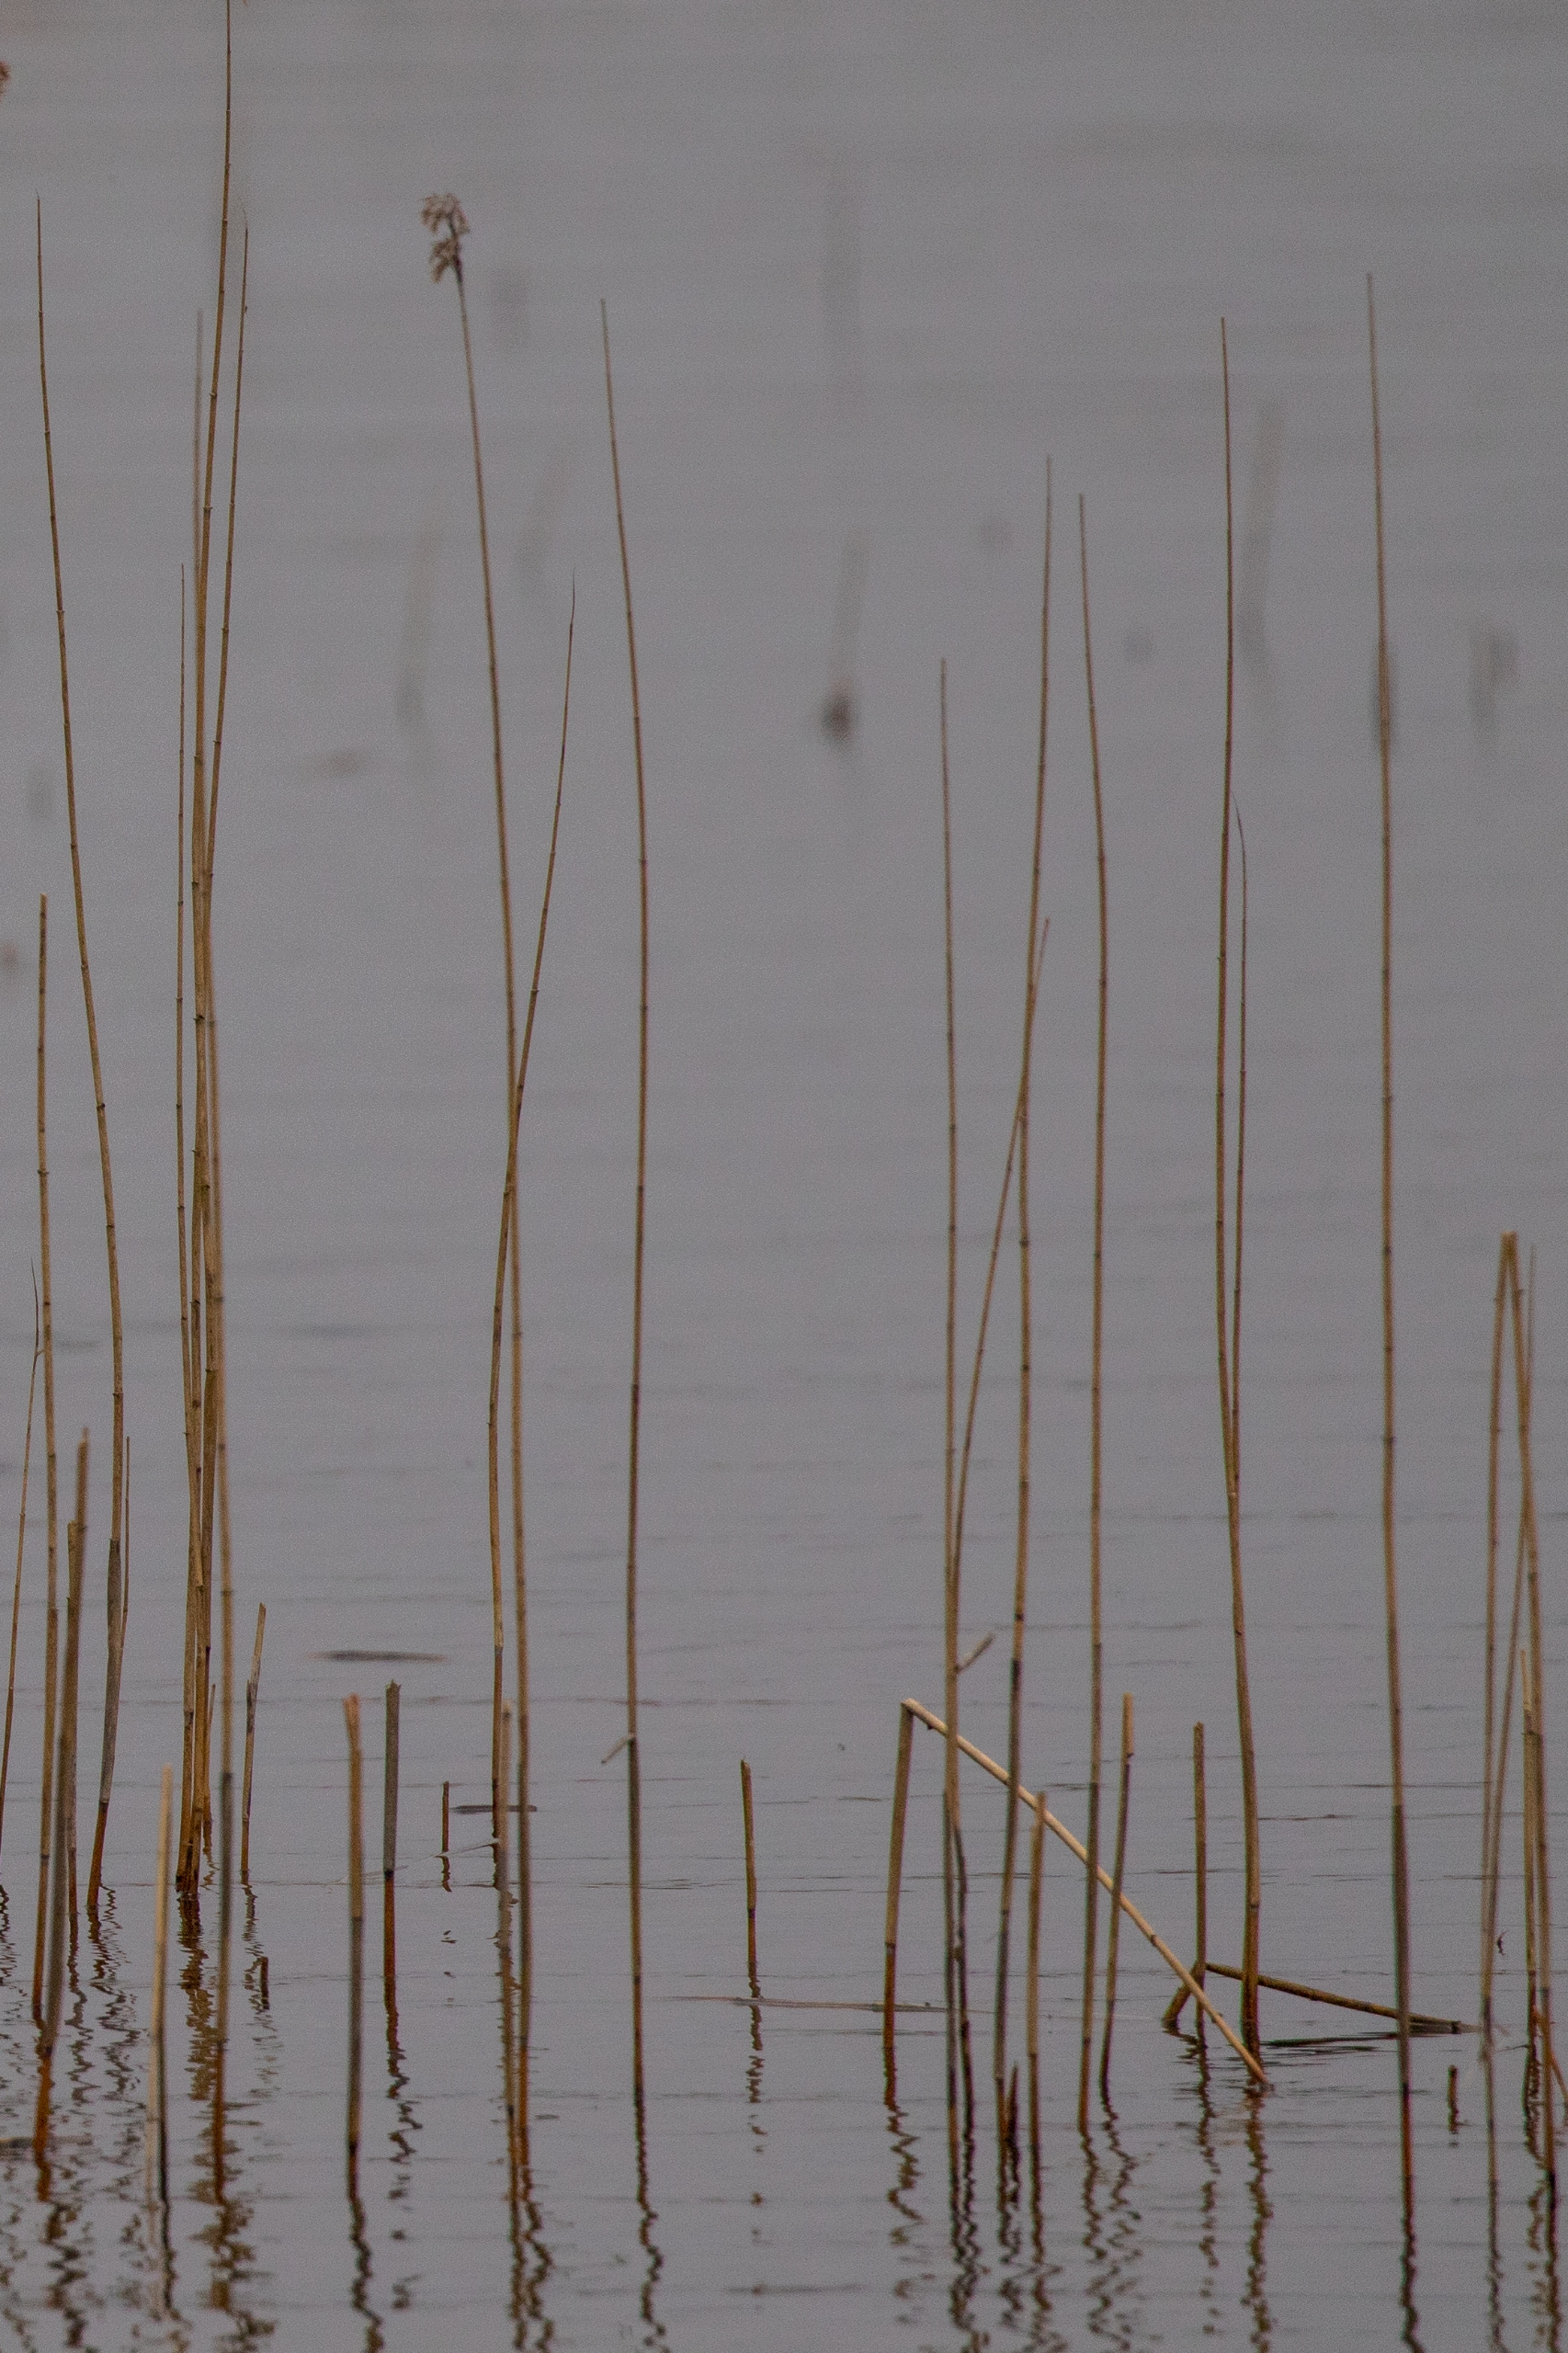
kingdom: Plantae
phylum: Tracheophyta
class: Liliopsida
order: Poales
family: Poaceae
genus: Phragmites
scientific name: Phragmites australis
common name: Tagrør
